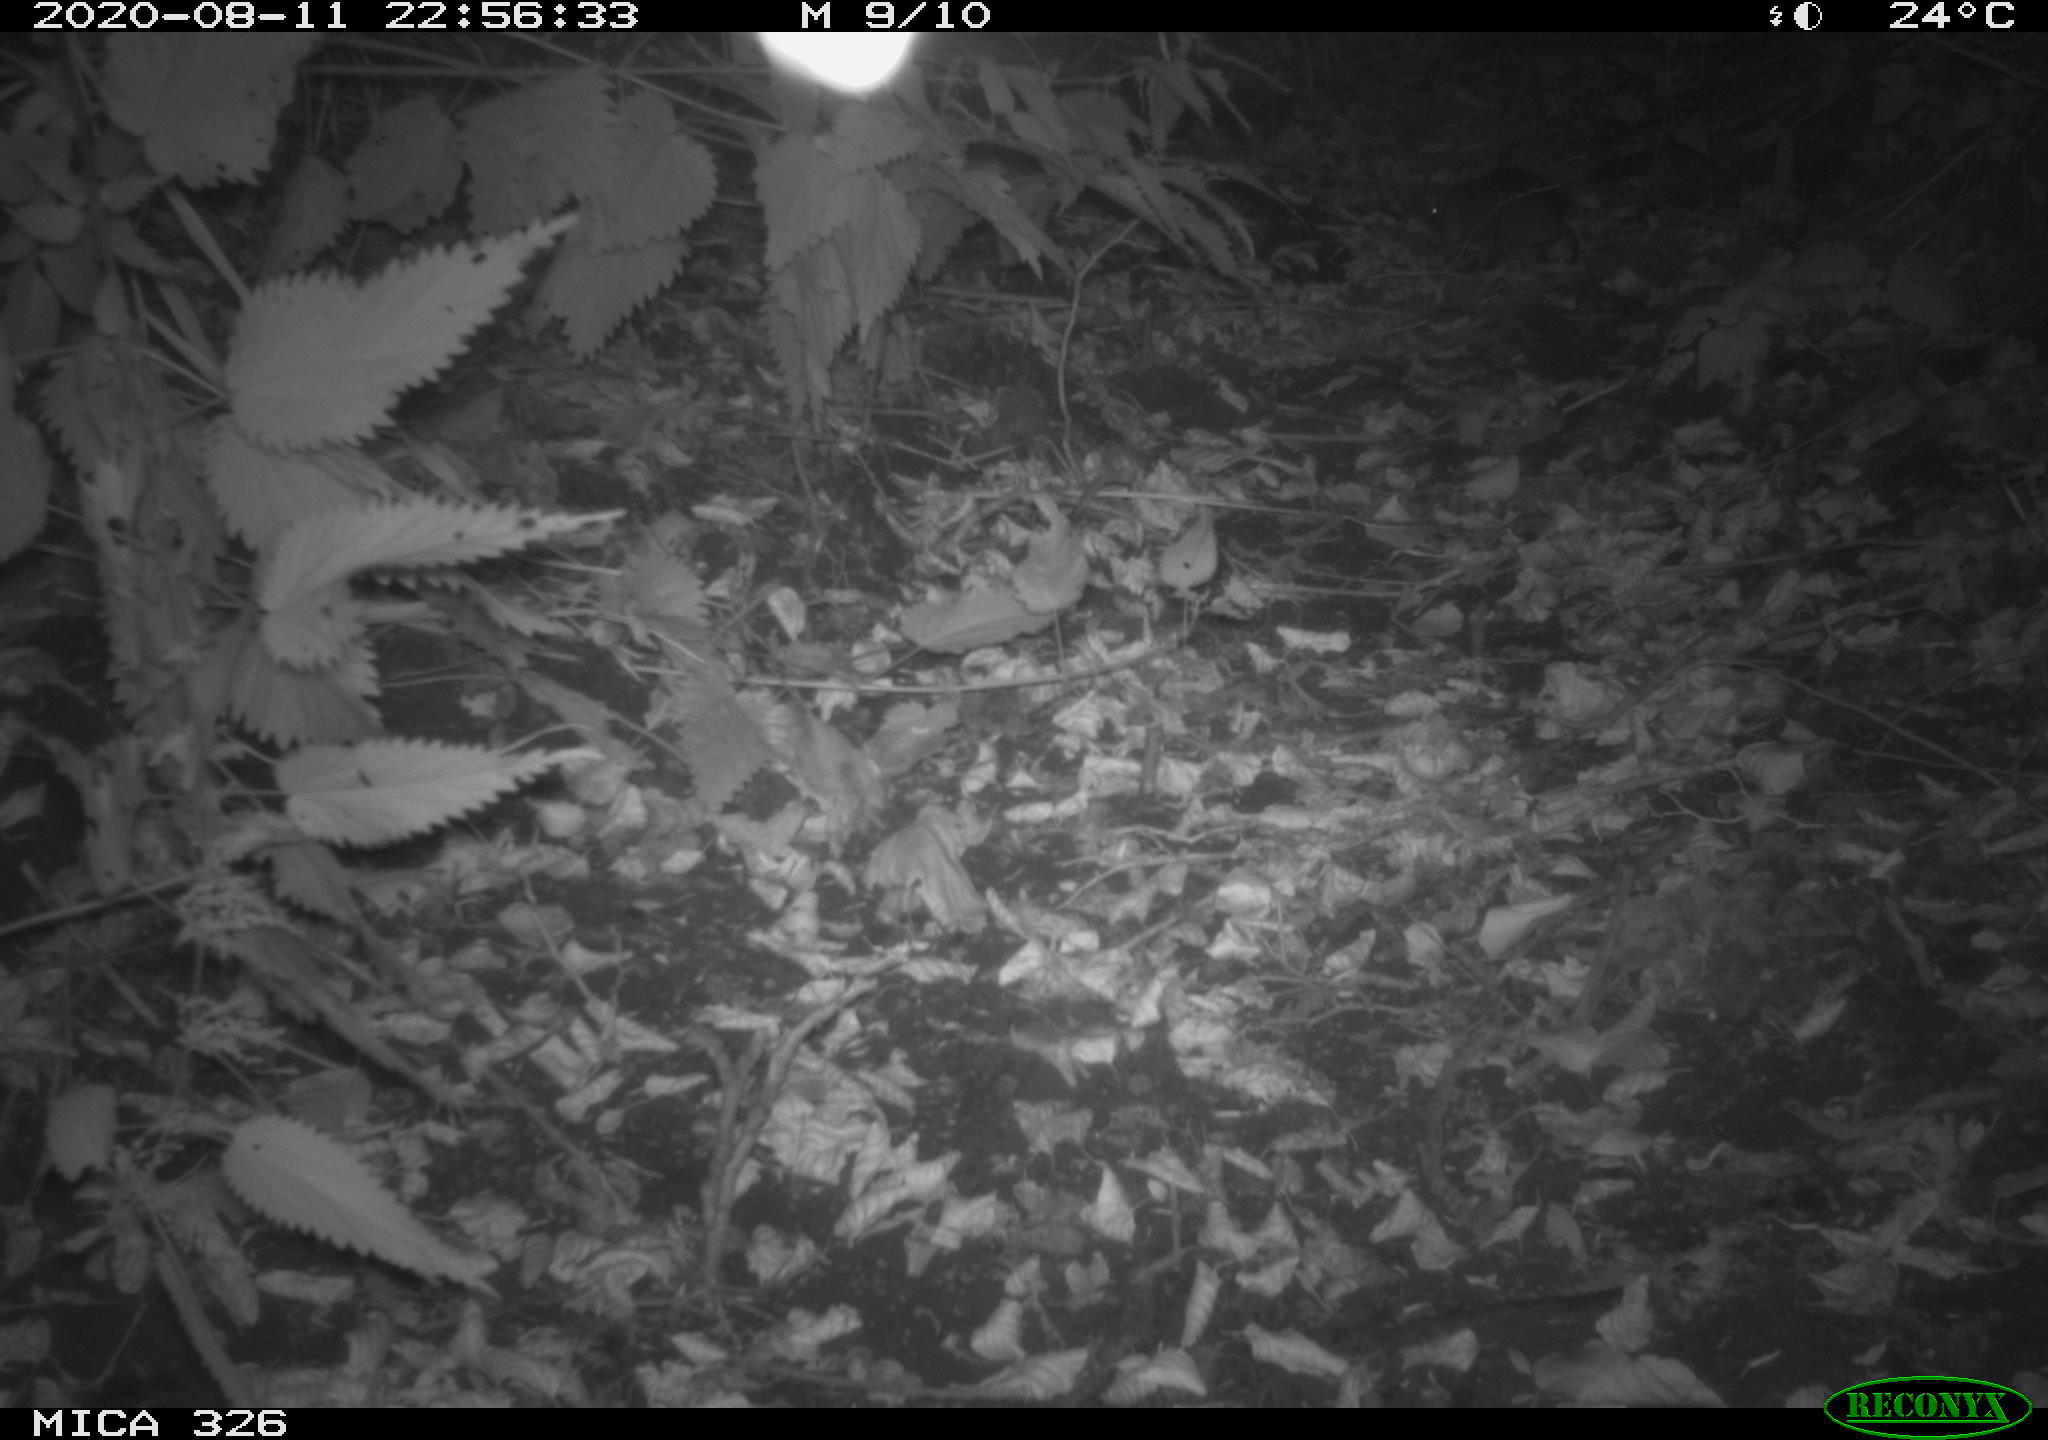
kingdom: Animalia
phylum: Chordata
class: Mammalia
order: Rodentia
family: Muridae
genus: Rattus
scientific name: Rattus norvegicus
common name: Brown rat
